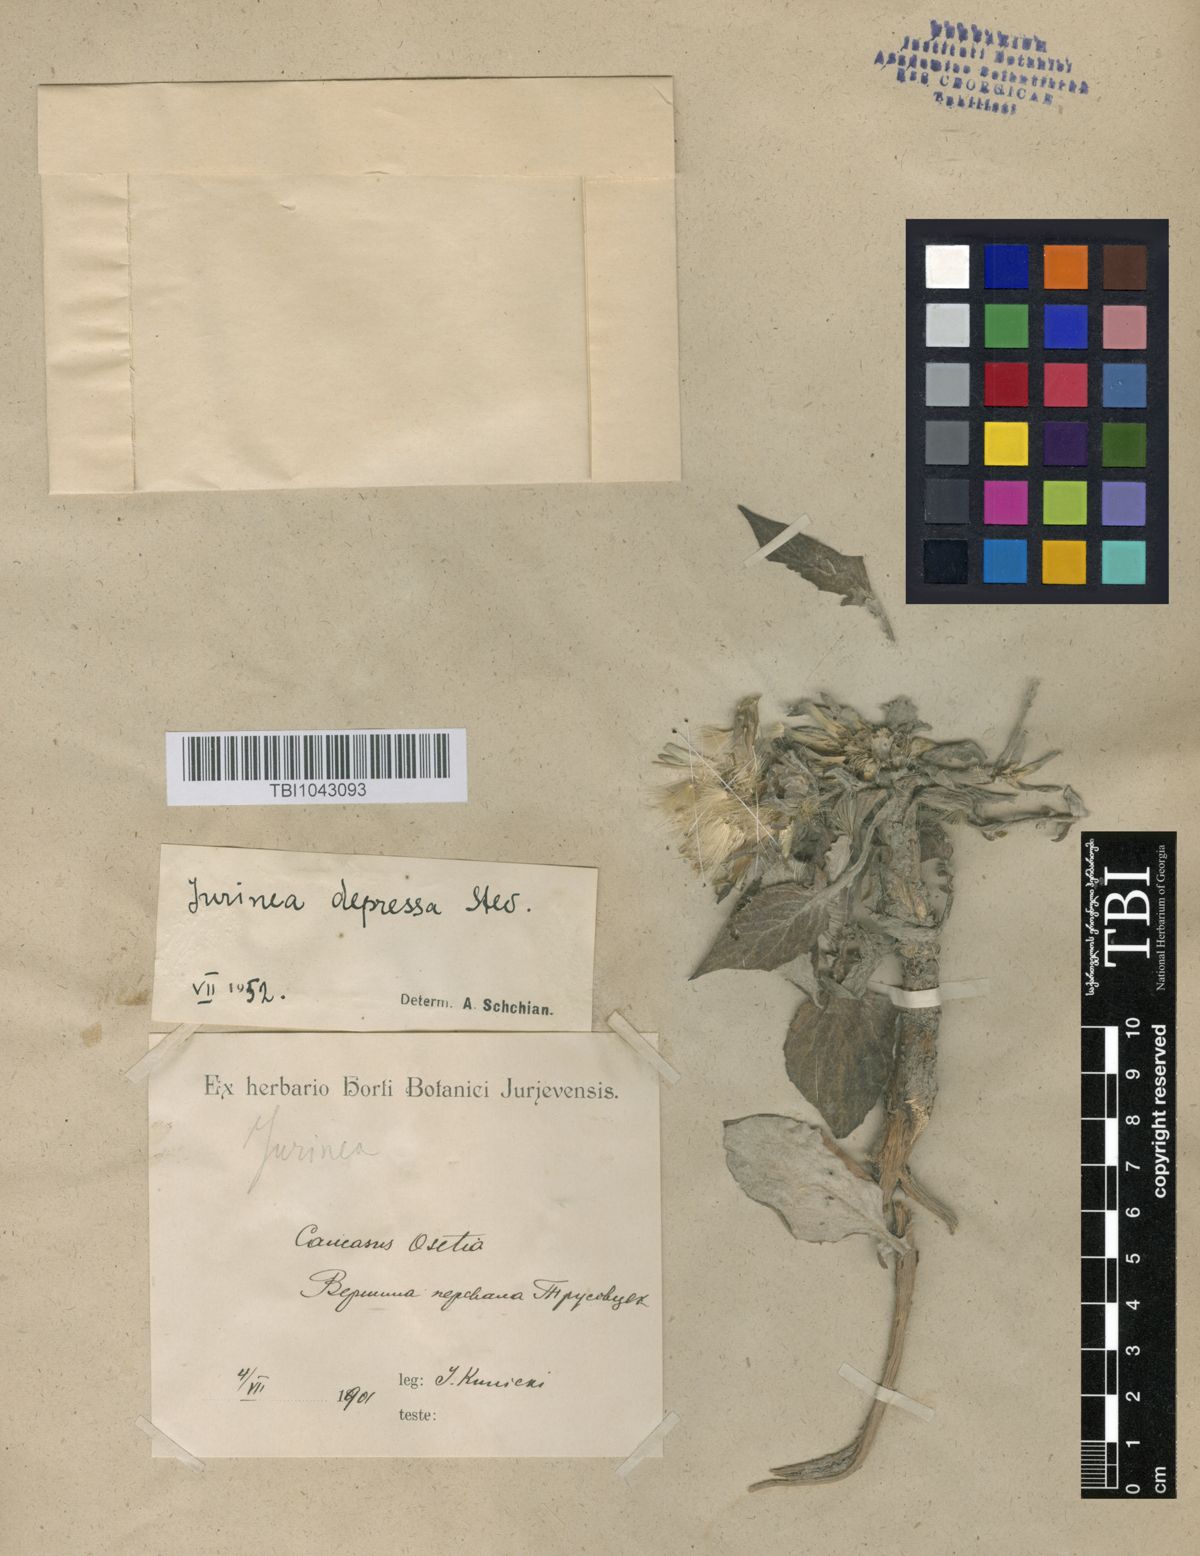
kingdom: Plantae
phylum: Tracheophyta
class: Magnoliopsida
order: Asterales
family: Asteraceae
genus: Jurinea
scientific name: Jurinea moschus
